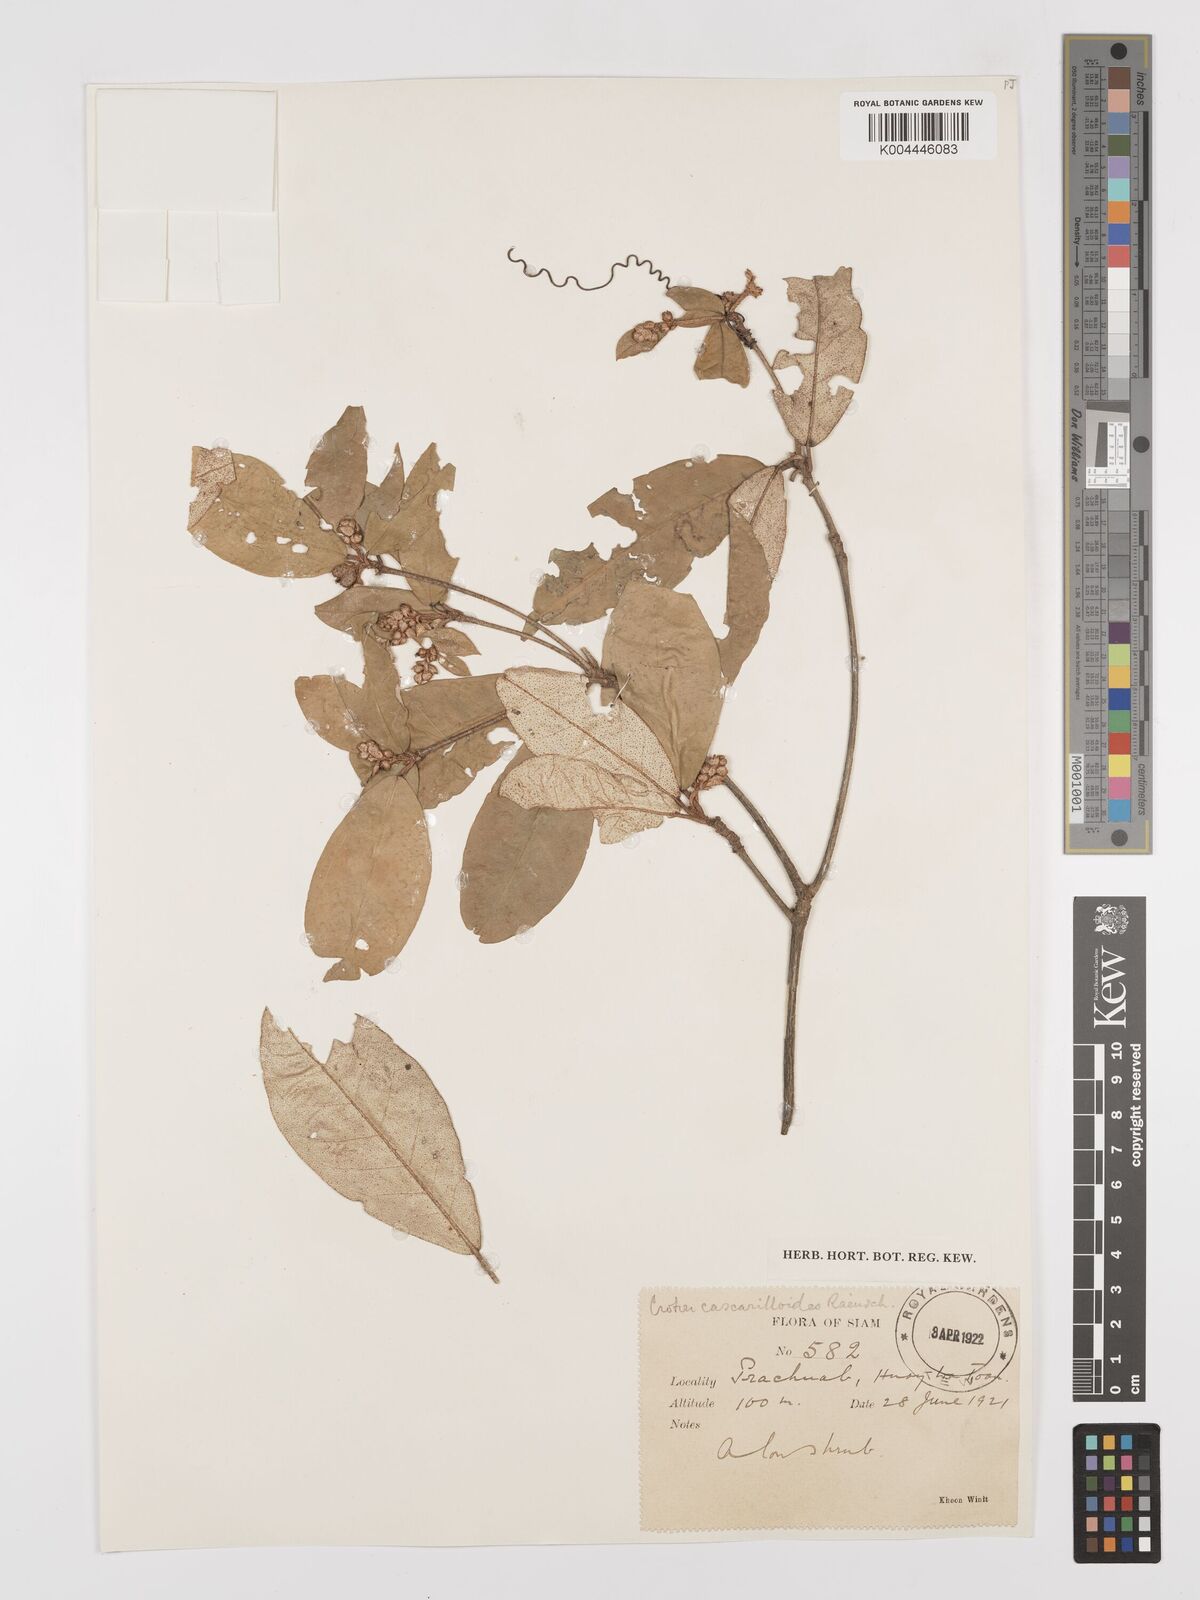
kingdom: Plantae
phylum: Tracheophyta
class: Magnoliopsida
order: Malpighiales
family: Euphorbiaceae
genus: Croton
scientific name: Croton cascarilloides
